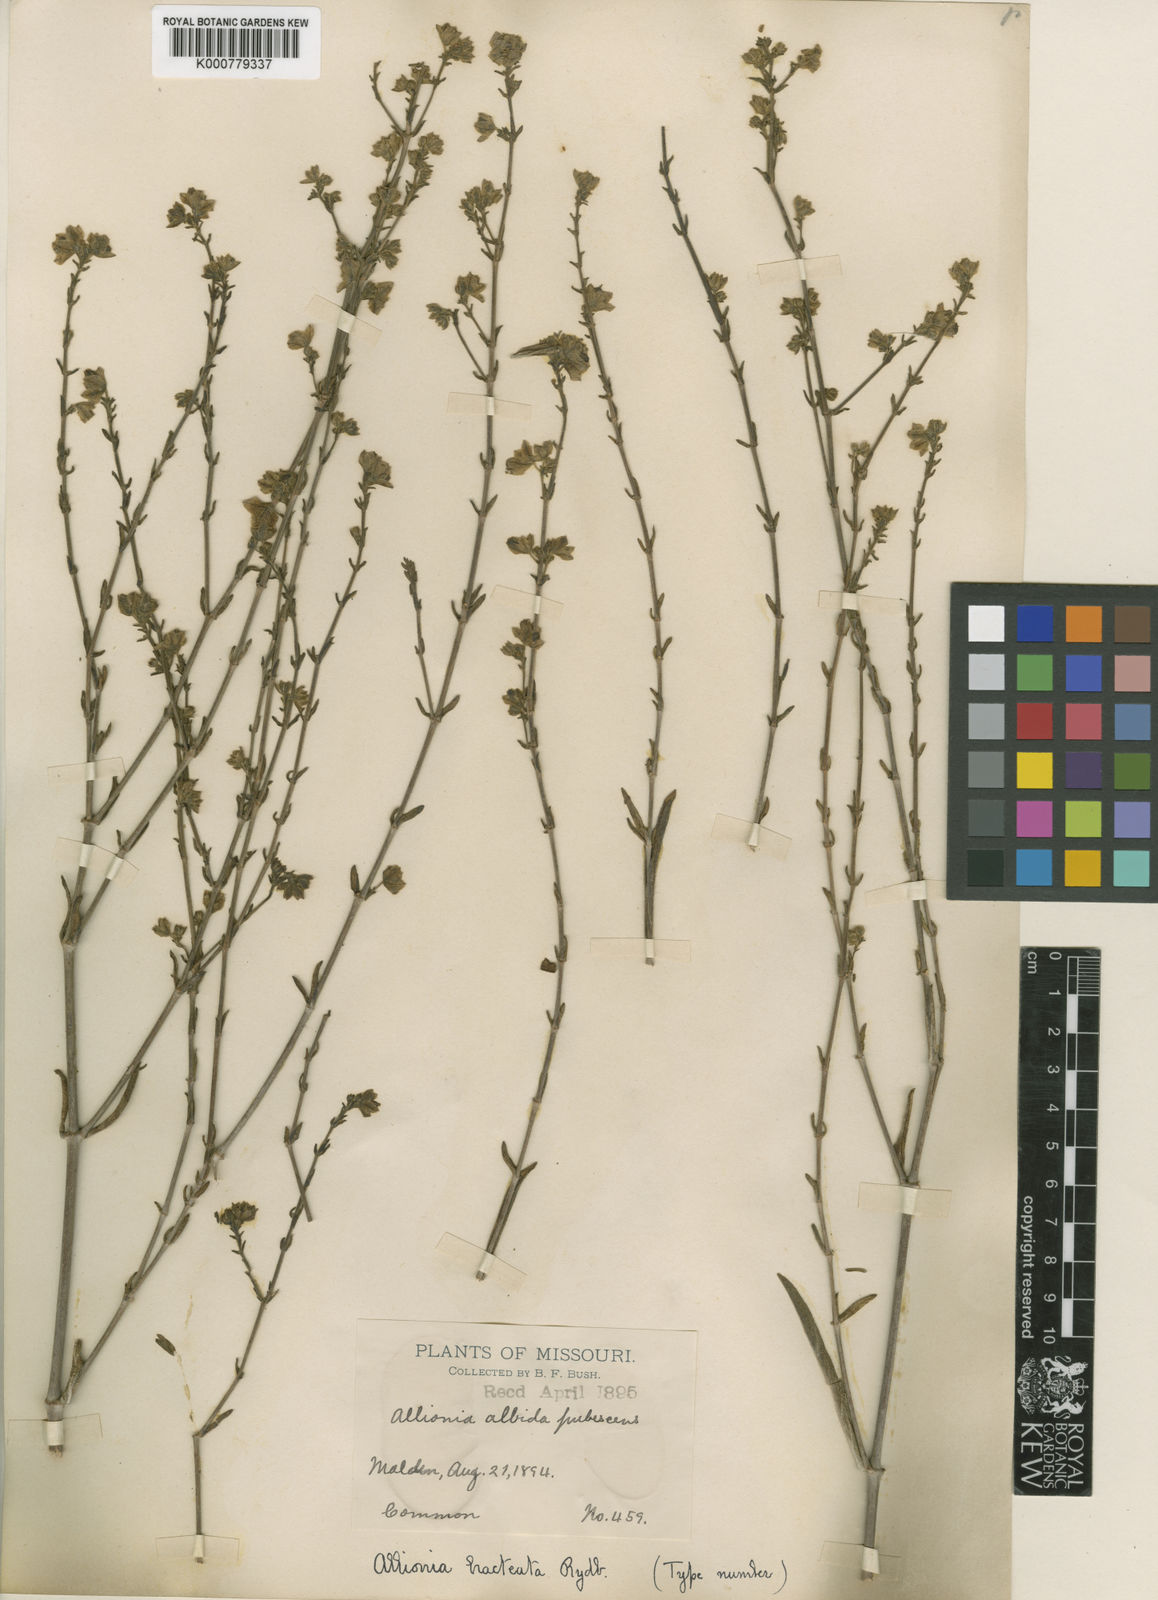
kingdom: Plantae
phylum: Tracheophyta
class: Magnoliopsida
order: Caryophyllales
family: Nyctaginaceae
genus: Mirabilis
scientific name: Mirabilis albida
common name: Hairy four-o'clock
